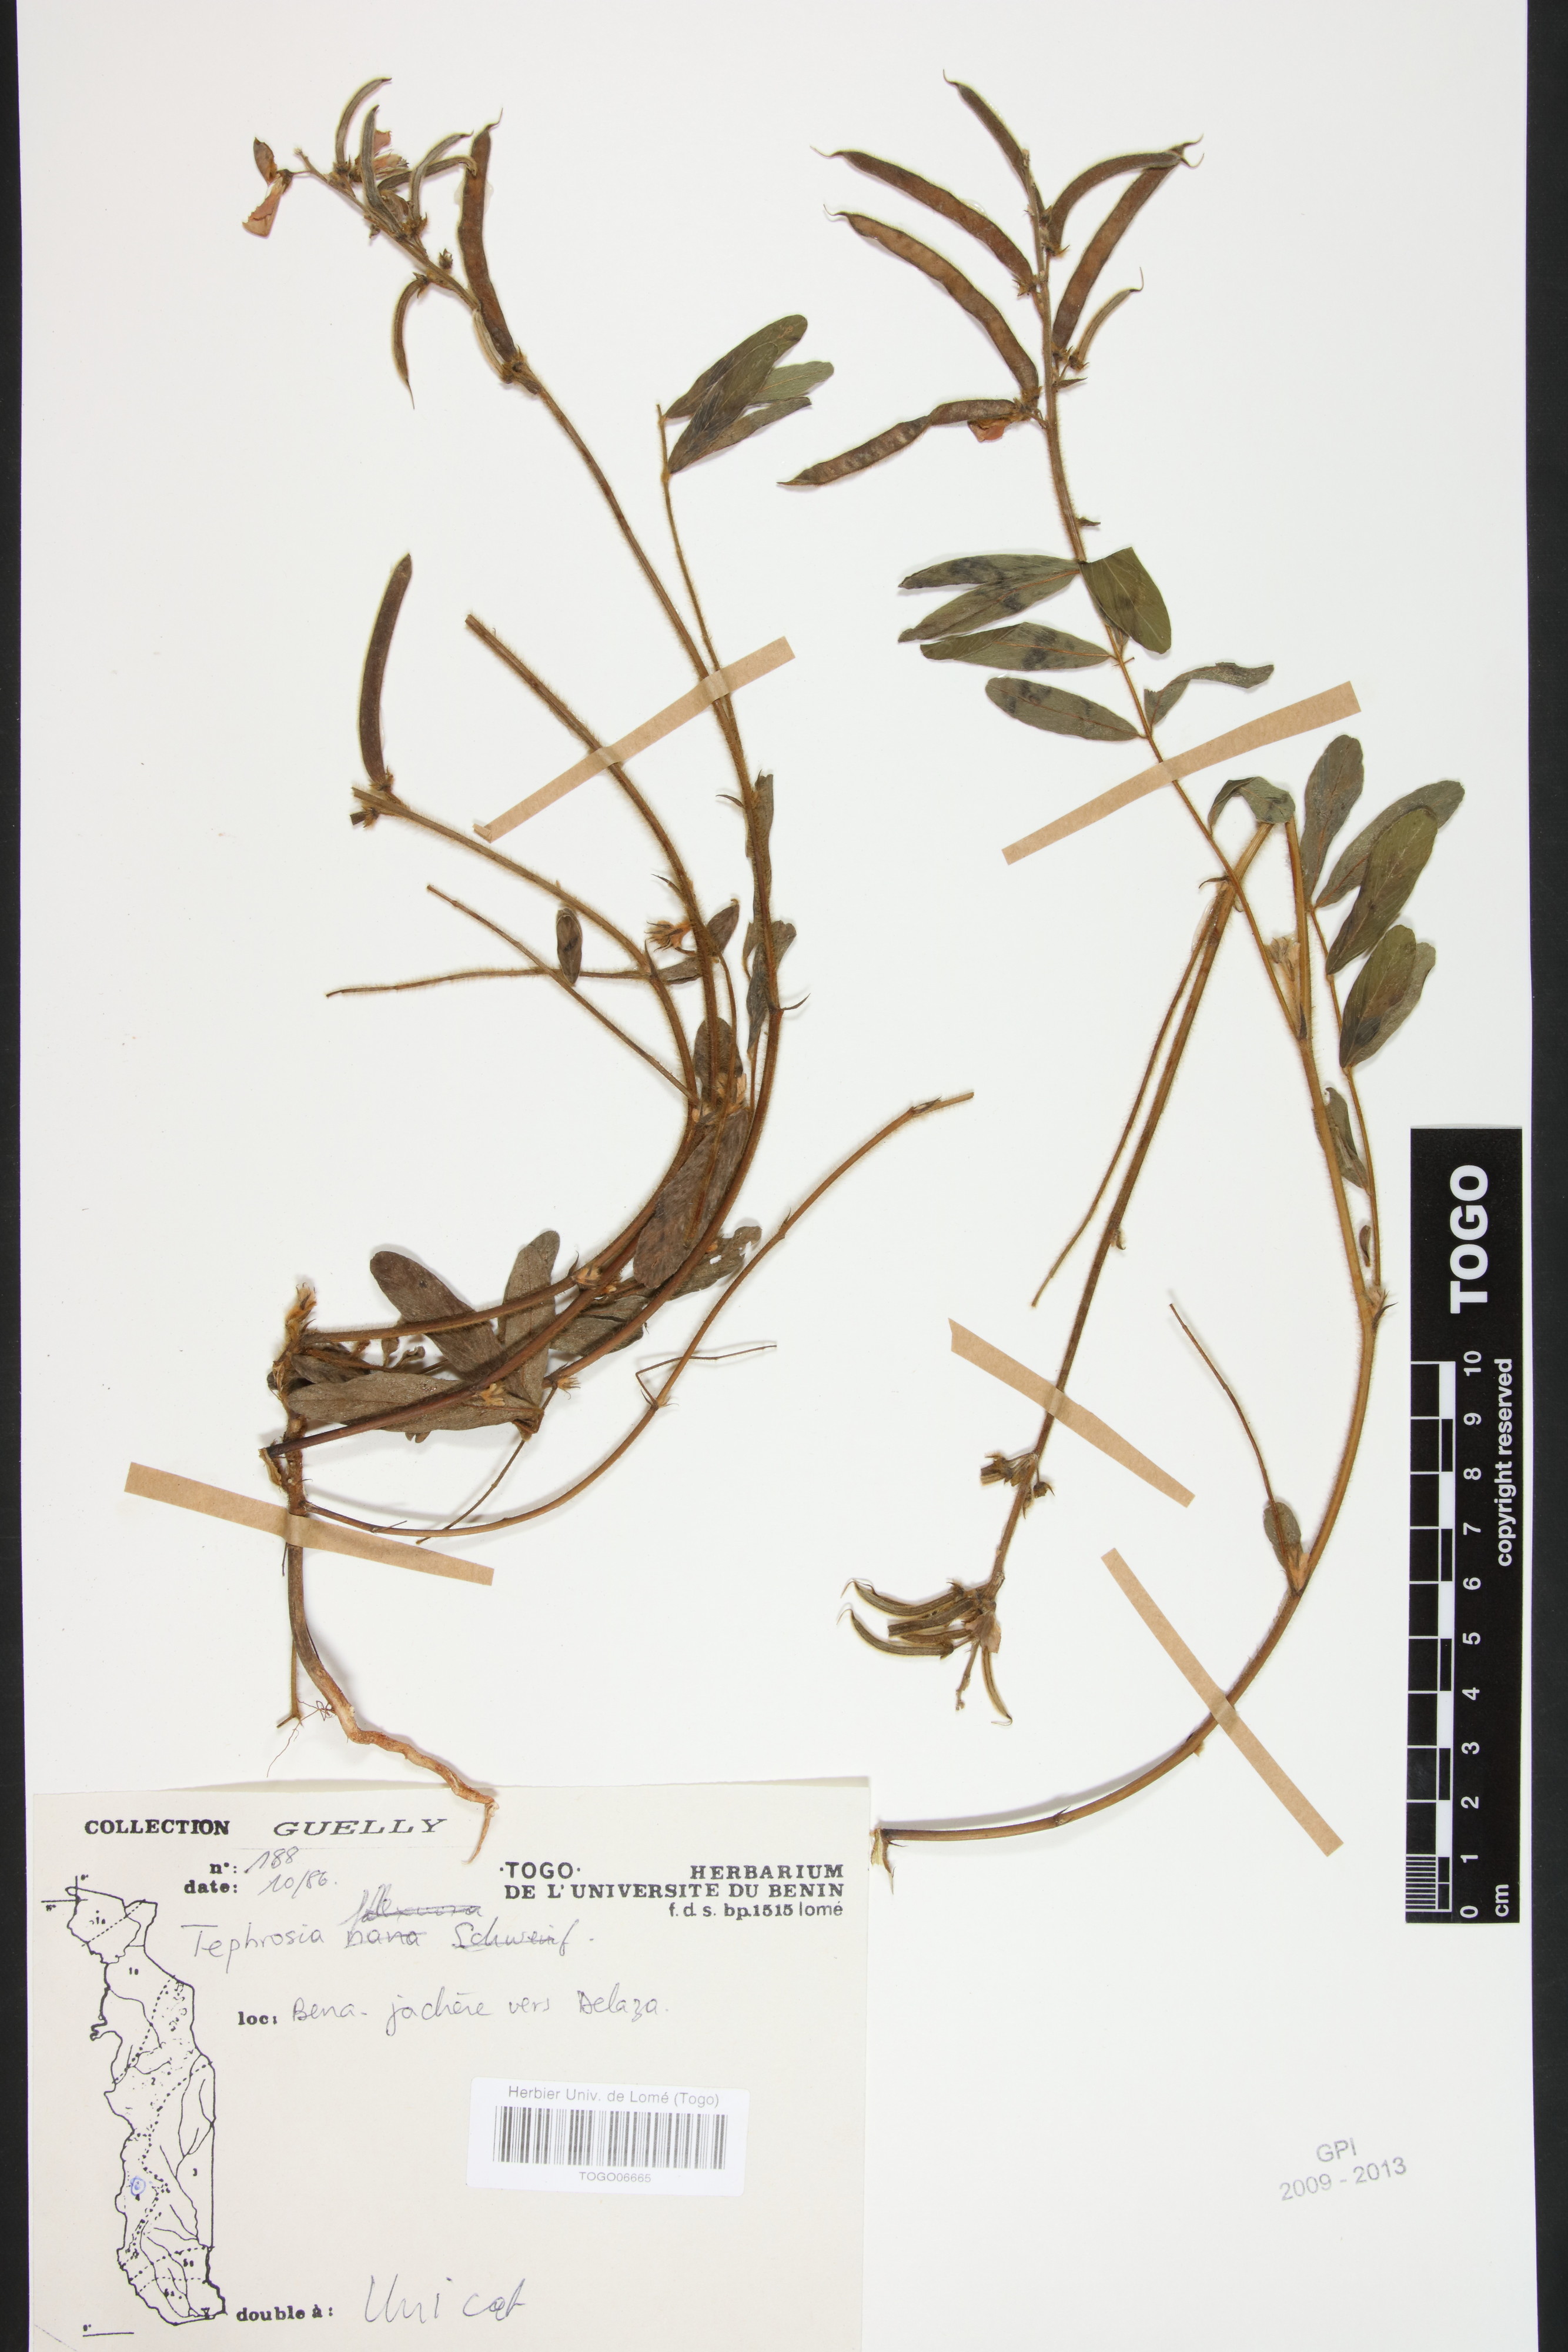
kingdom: Plantae
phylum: Tracheophyta
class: Magnoliopsida
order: Fabales
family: Fabaceae
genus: Tephrosia
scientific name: Tephrosia nana
